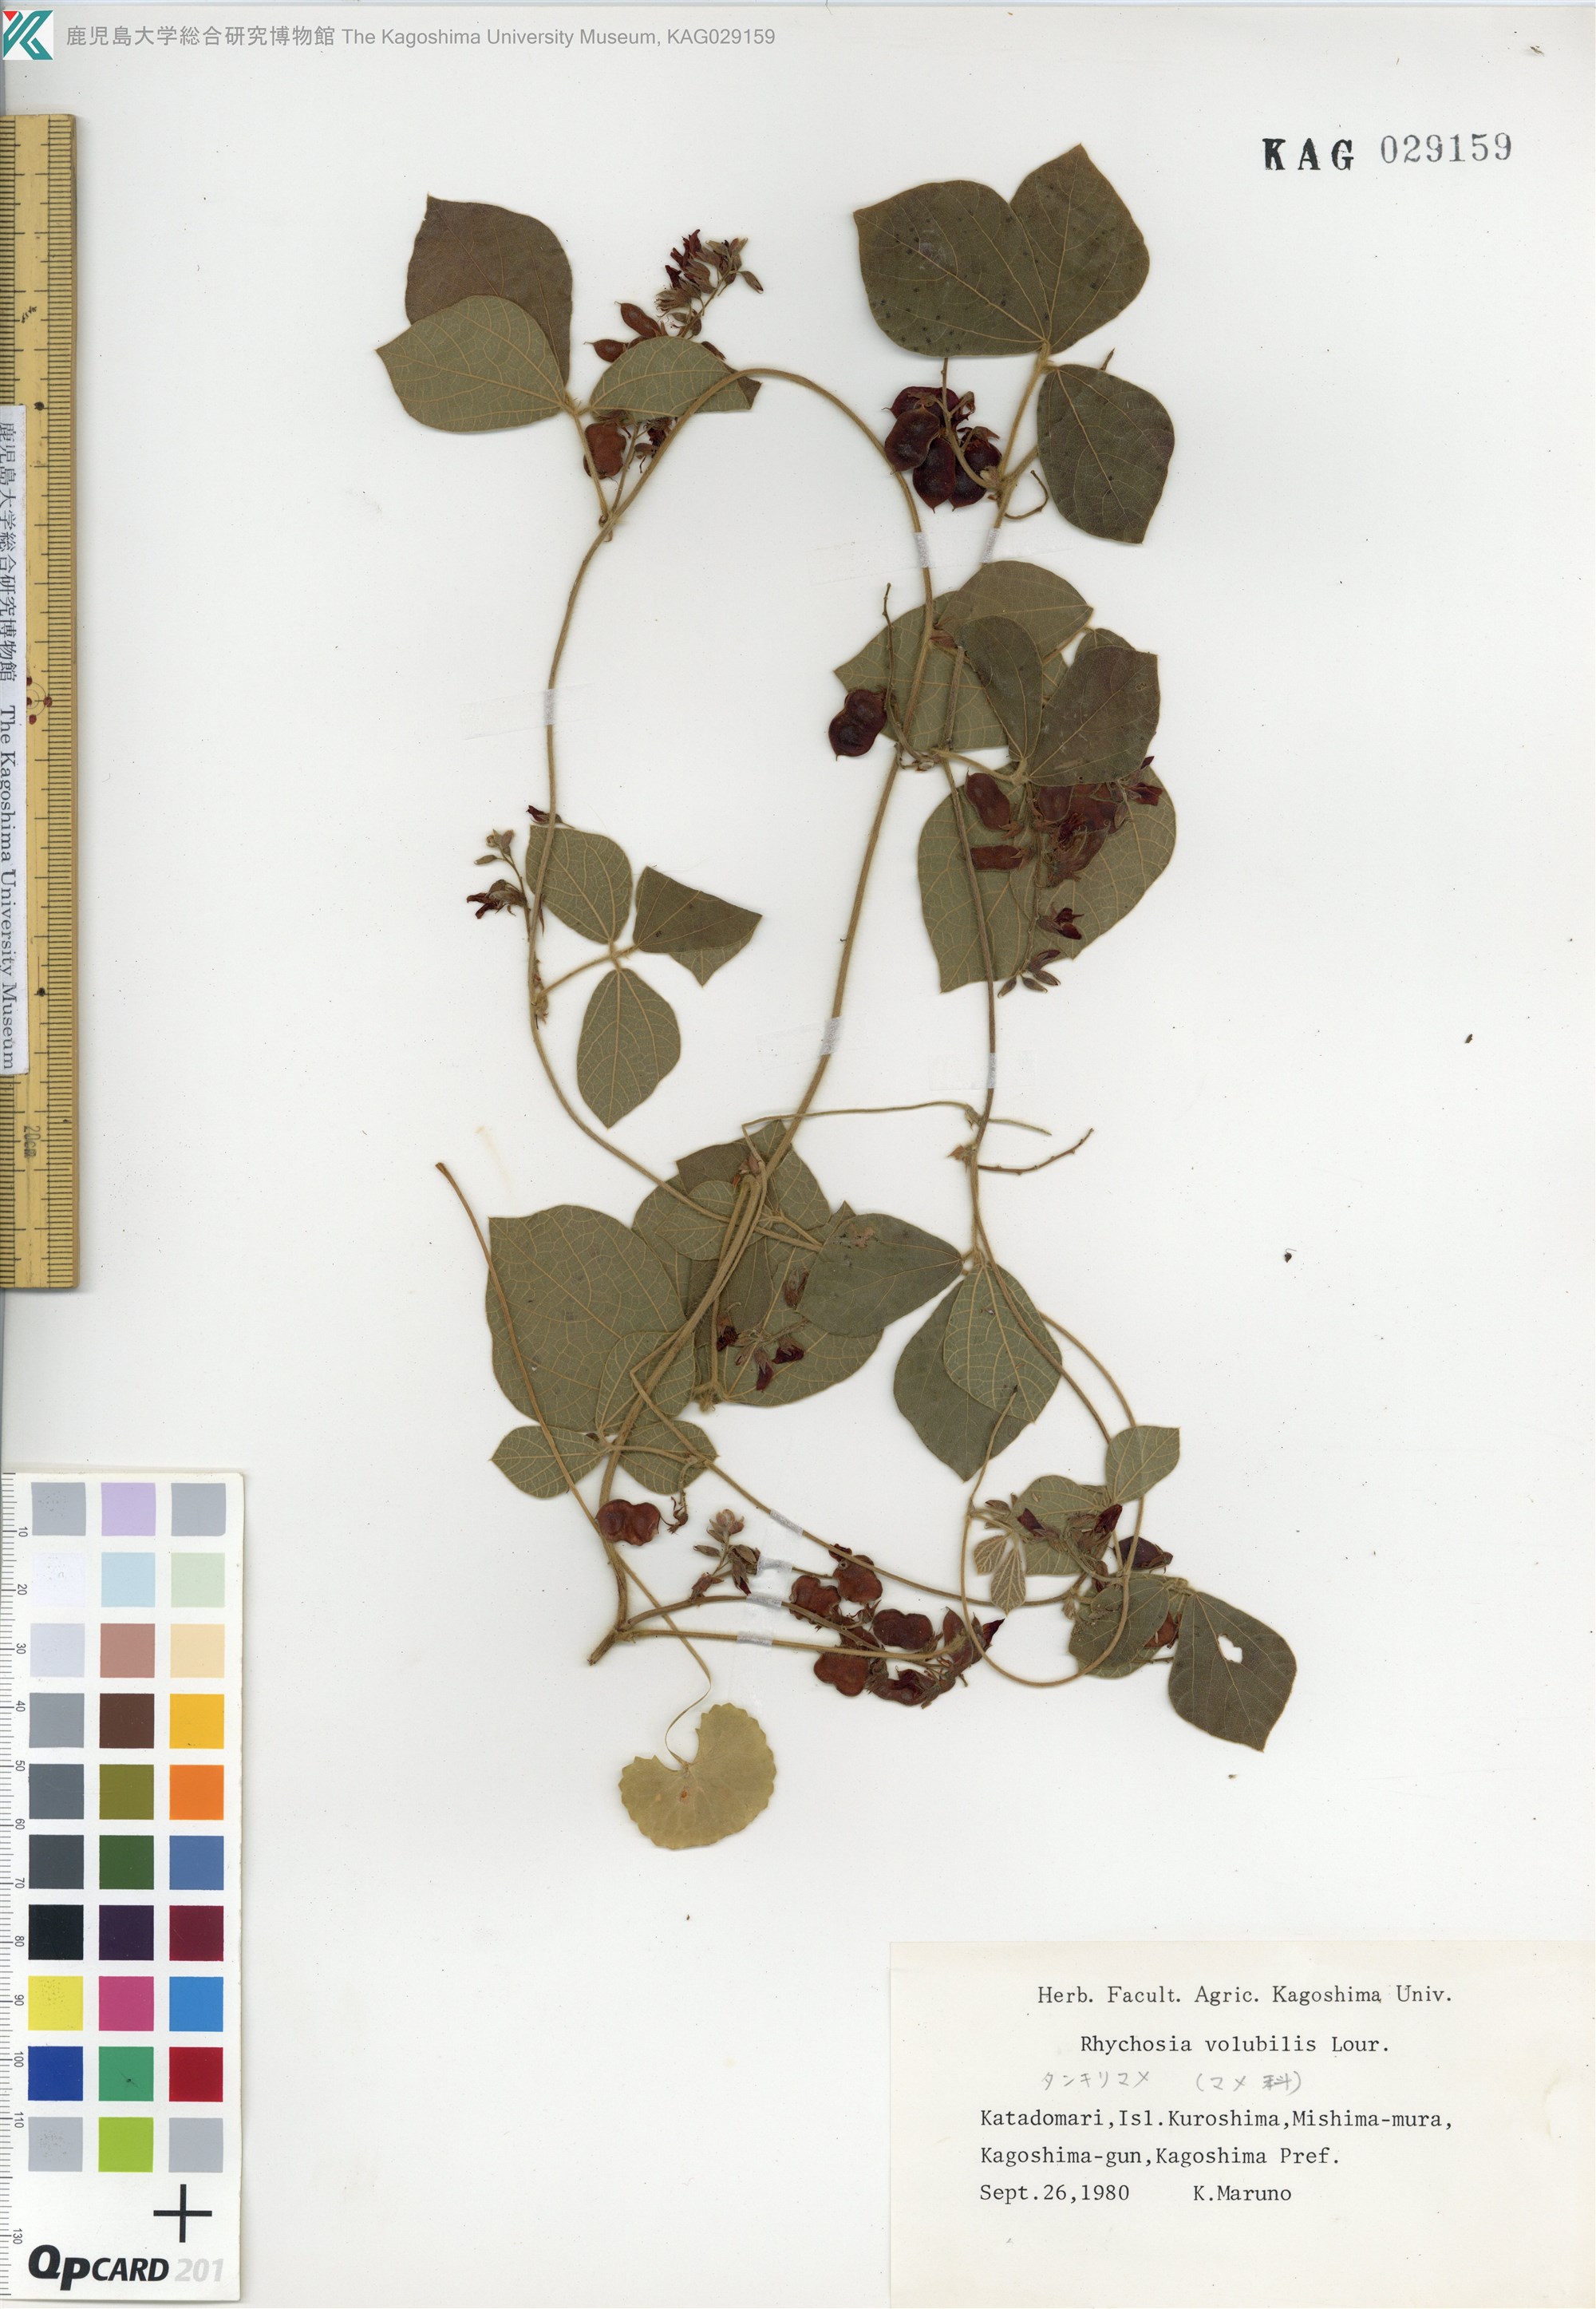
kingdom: Plantae
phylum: Tracheophyta
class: Magnoliopsida
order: Fabales
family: Fabaceae
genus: Rhynchosia
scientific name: Rhynchosia volubilis
